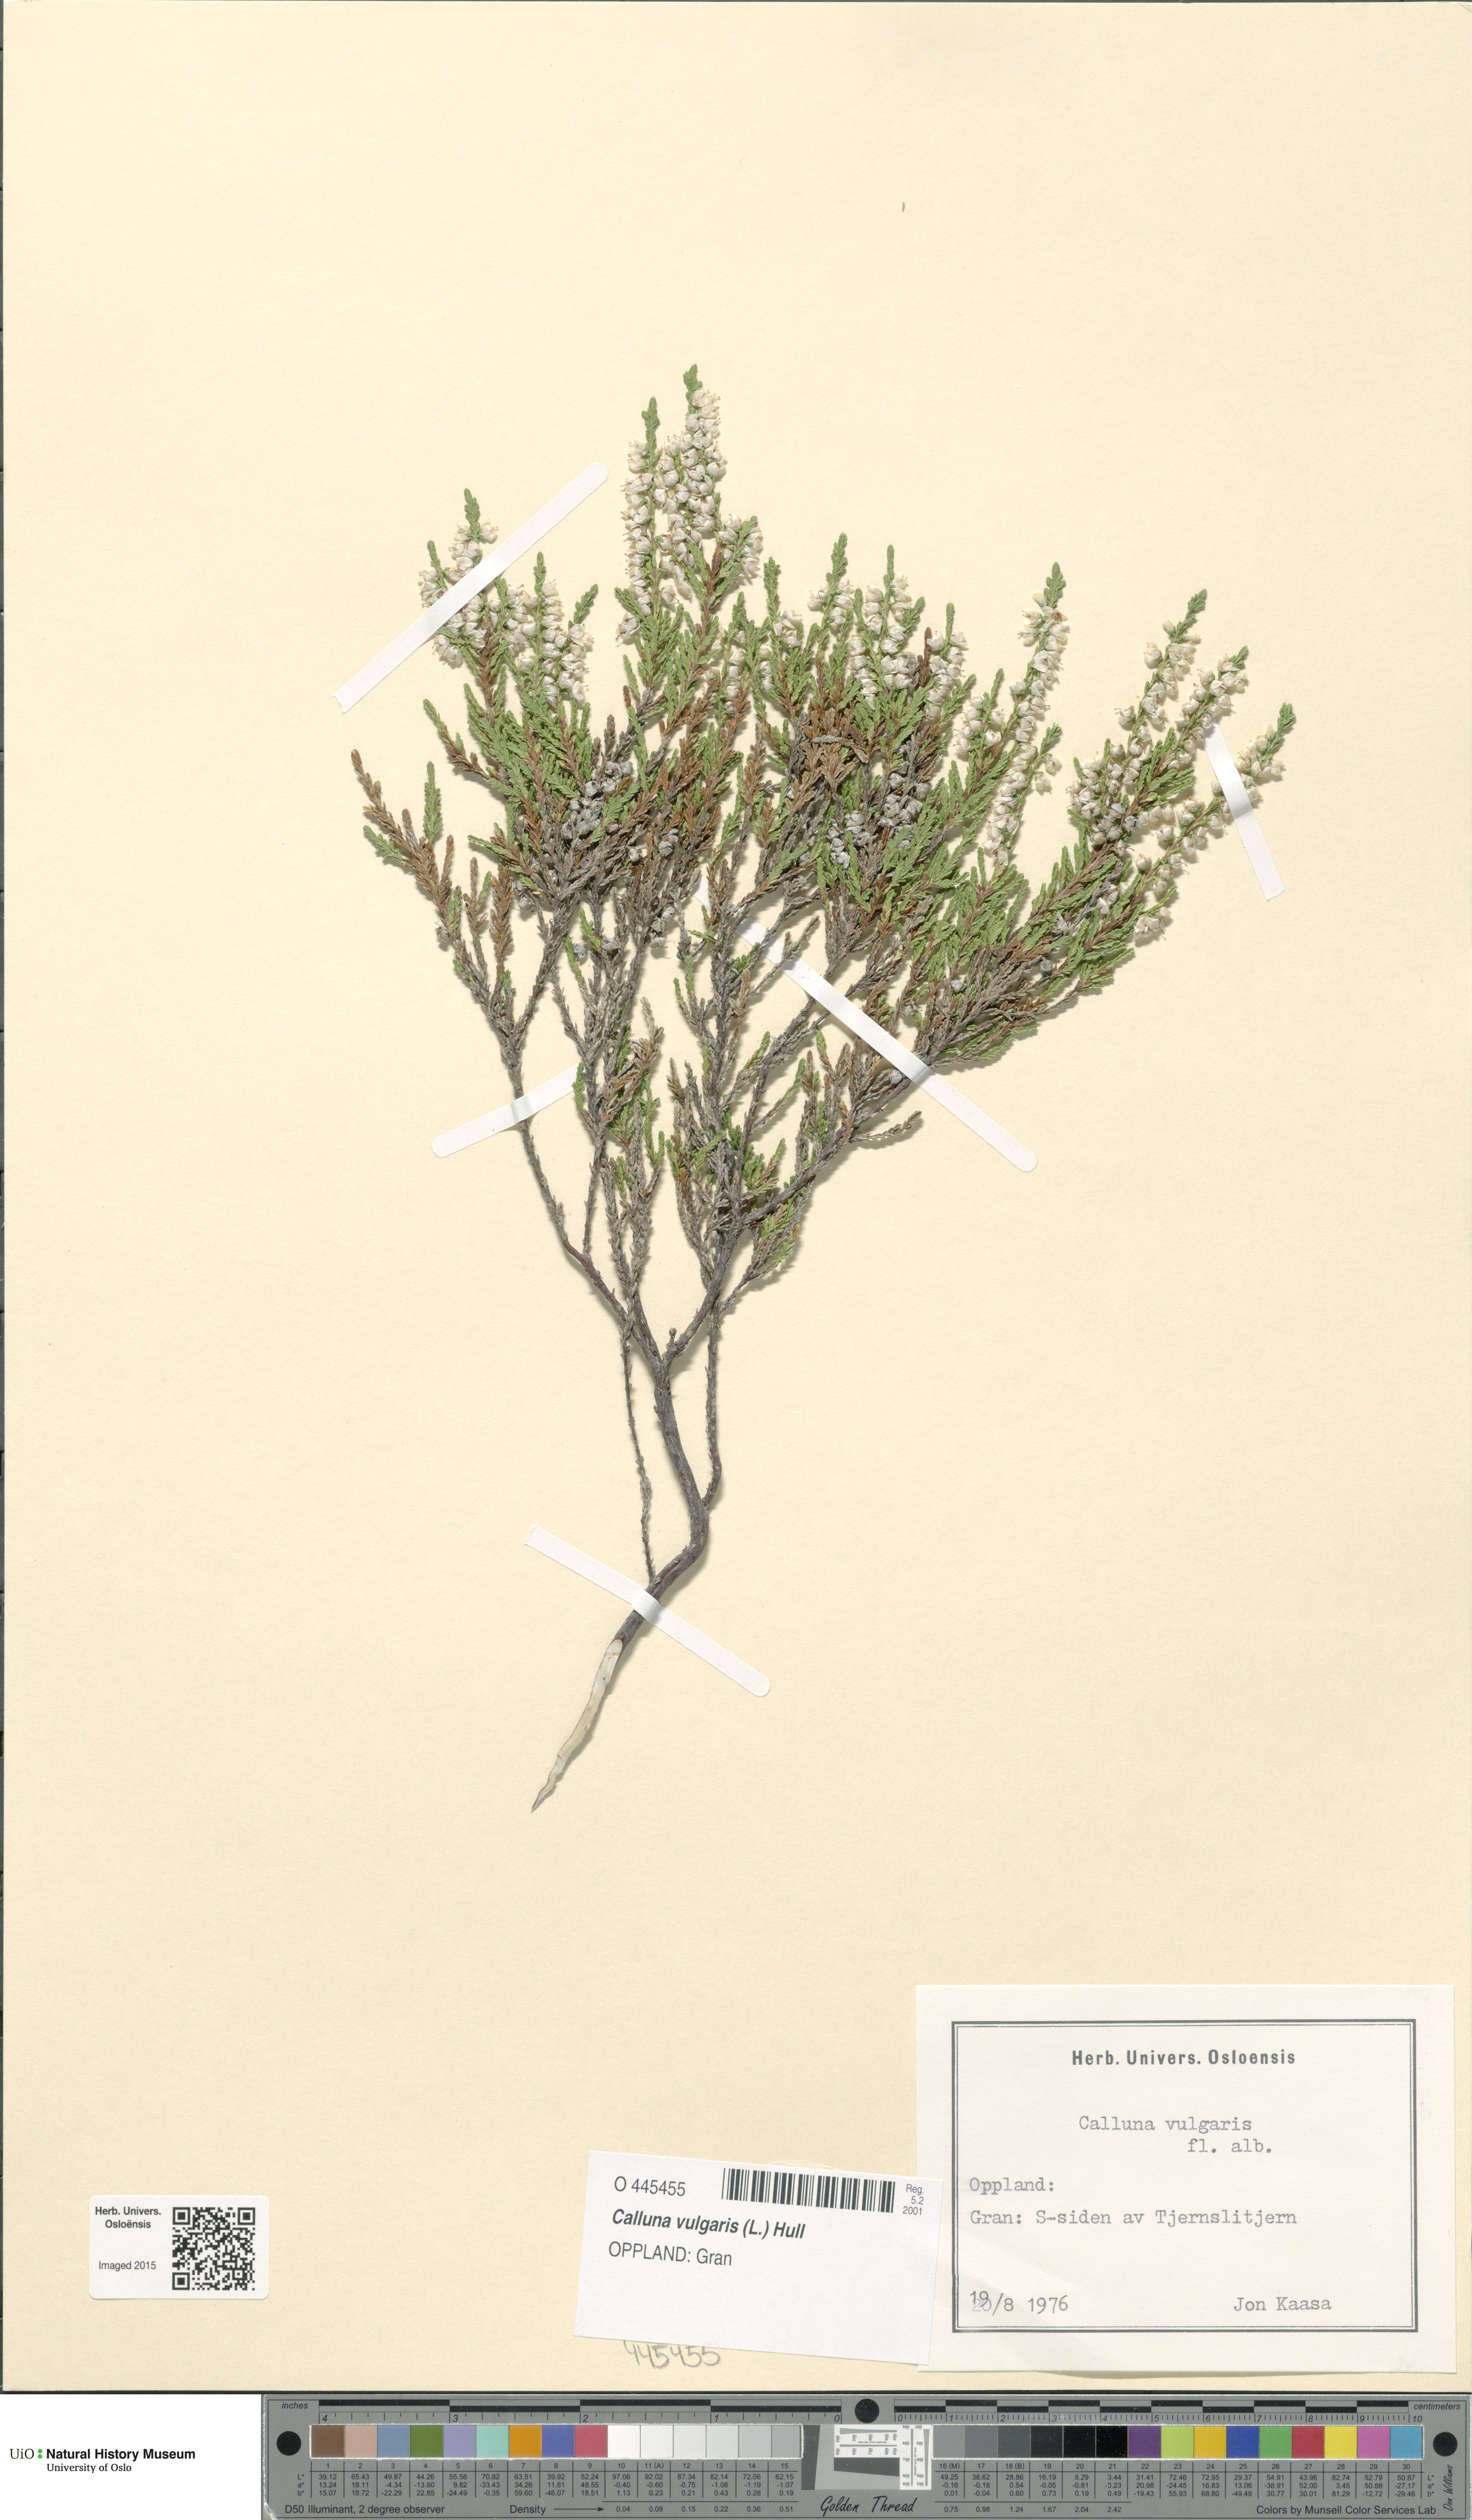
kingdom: Plantae
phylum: Tracheophyta
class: Magnoliopsida
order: Ericales
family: Ericaceae
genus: Calluna
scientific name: Calluna vulgaris
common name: Heather
